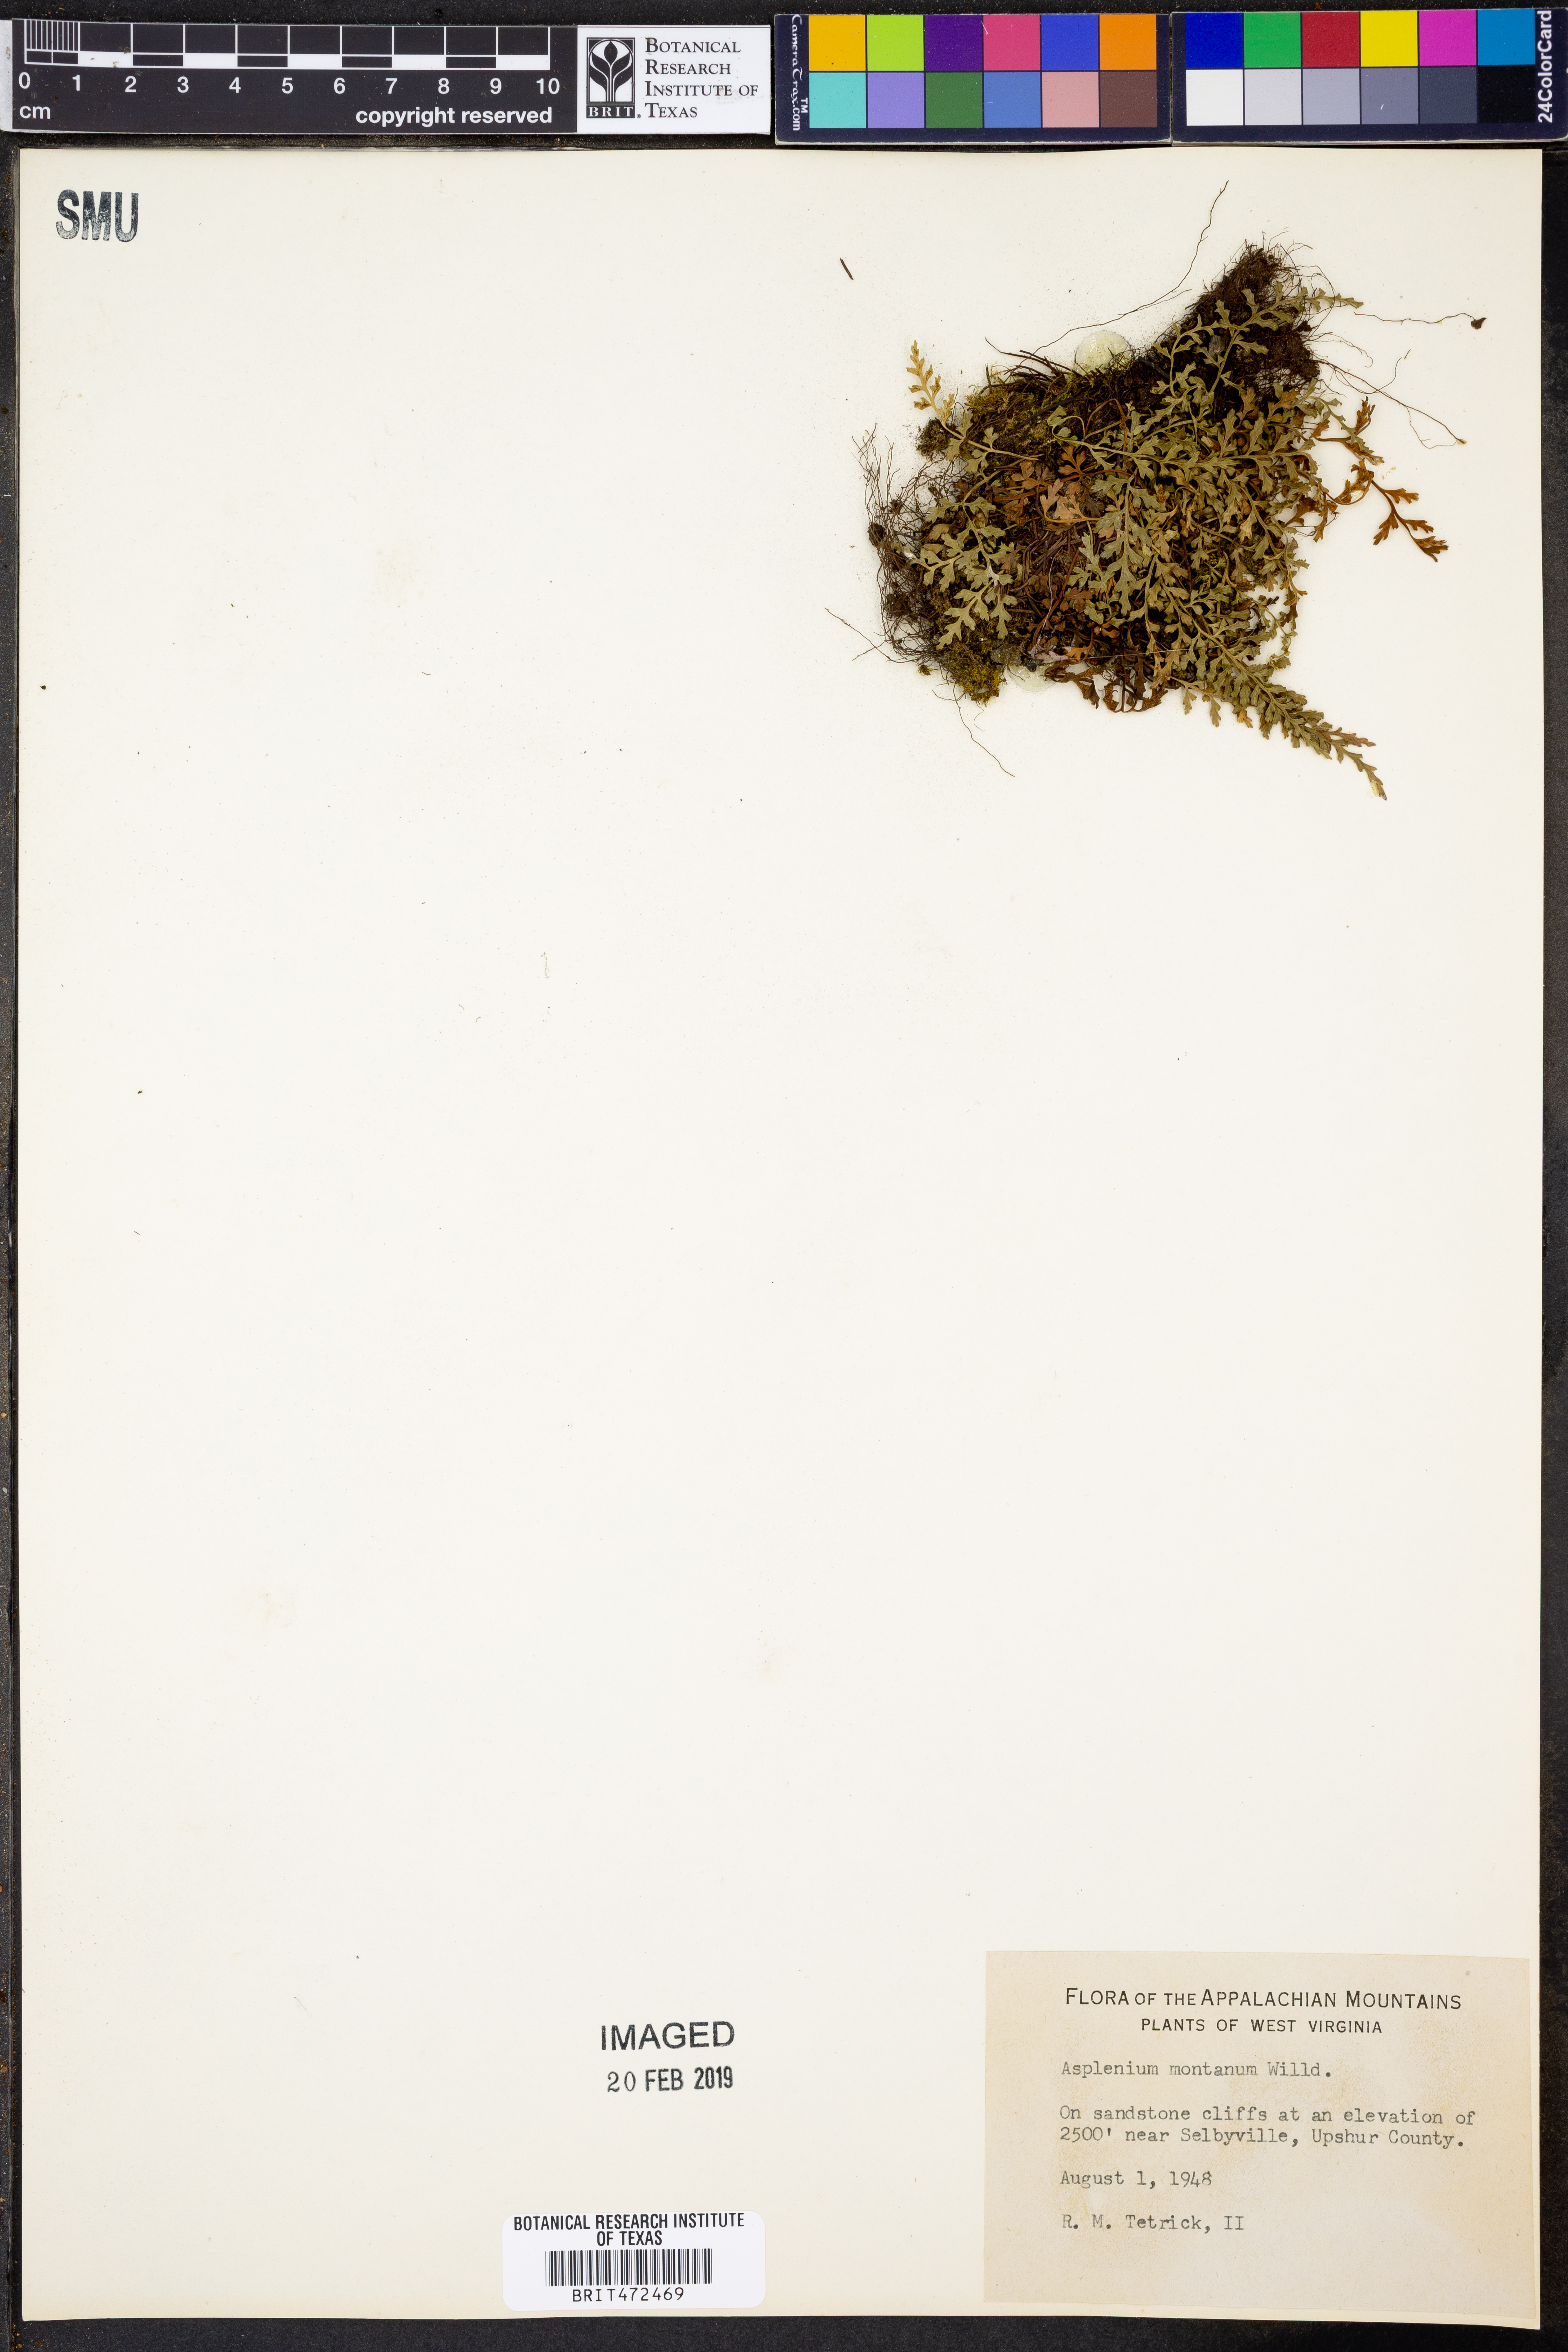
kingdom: Plantae
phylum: Tracheophyta
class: Polypodiopsida
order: Polypodiales
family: Aspleniaceae
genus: Asplenium
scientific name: Asplenium montanum
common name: Mountain spleenwort
